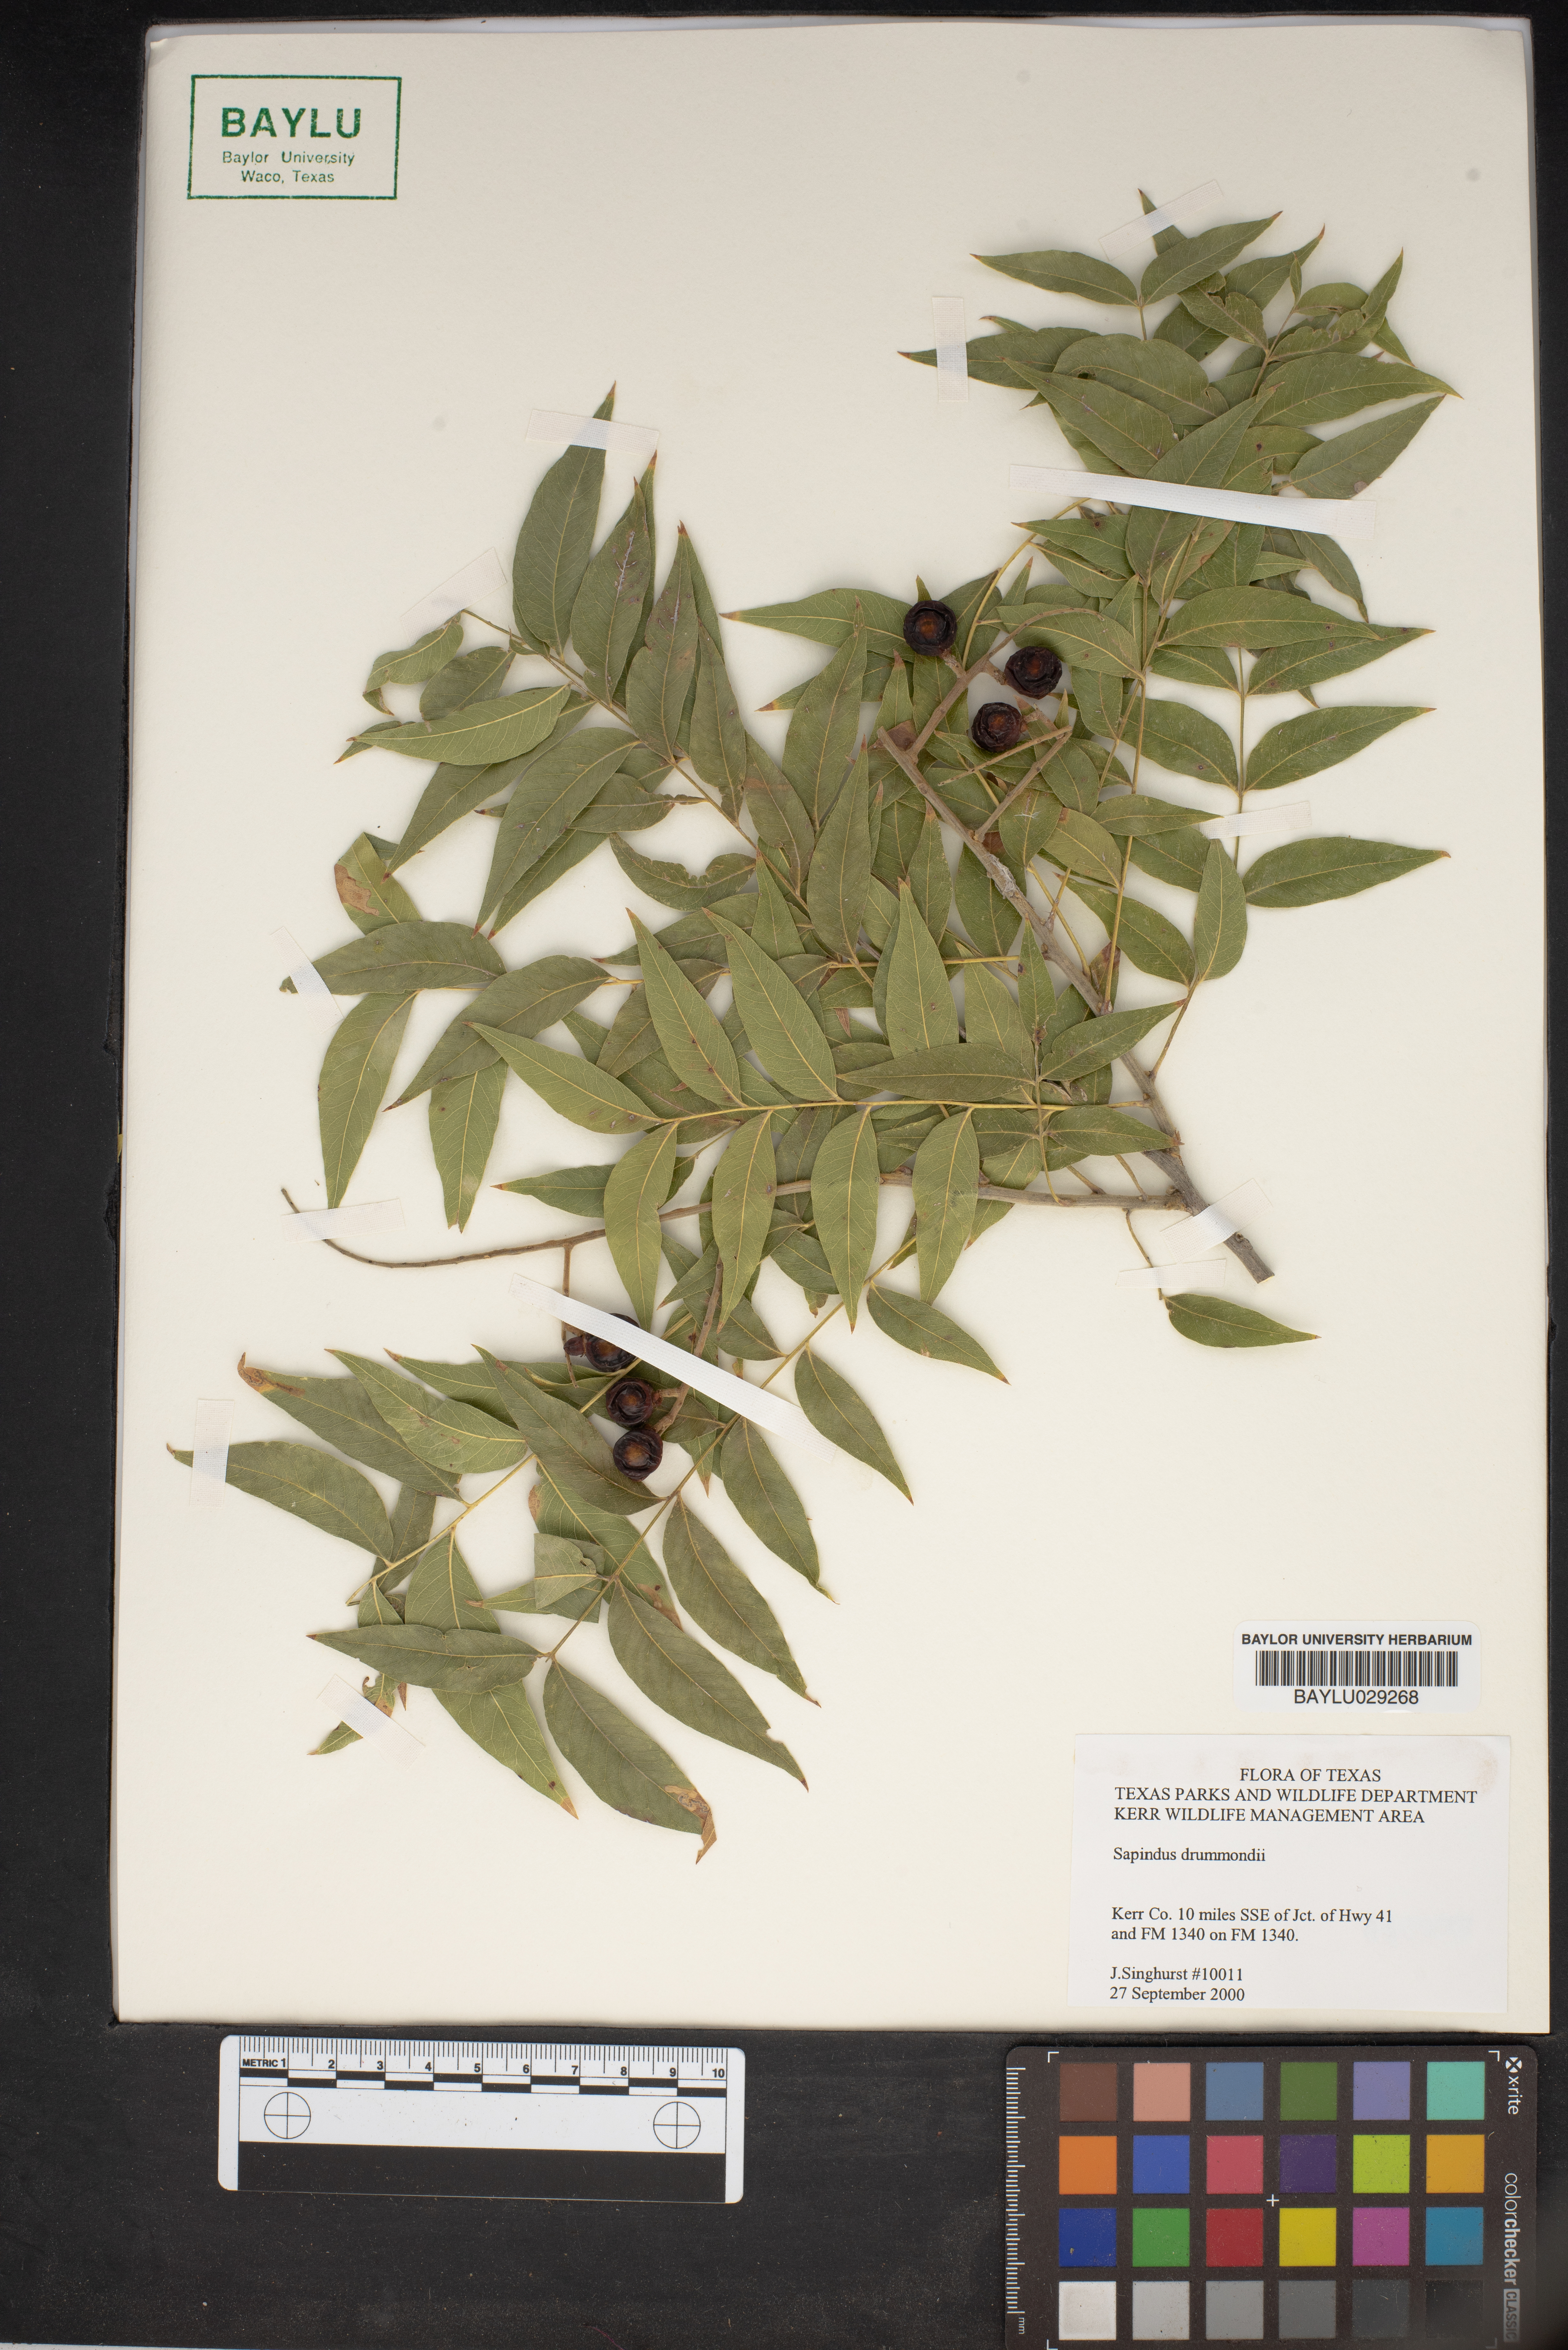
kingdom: Plantae
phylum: Tracheophyta
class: Magnoliopsida
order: Sapindales
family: Sapindaceae
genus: Sapindus
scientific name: Sapindus drummondii
